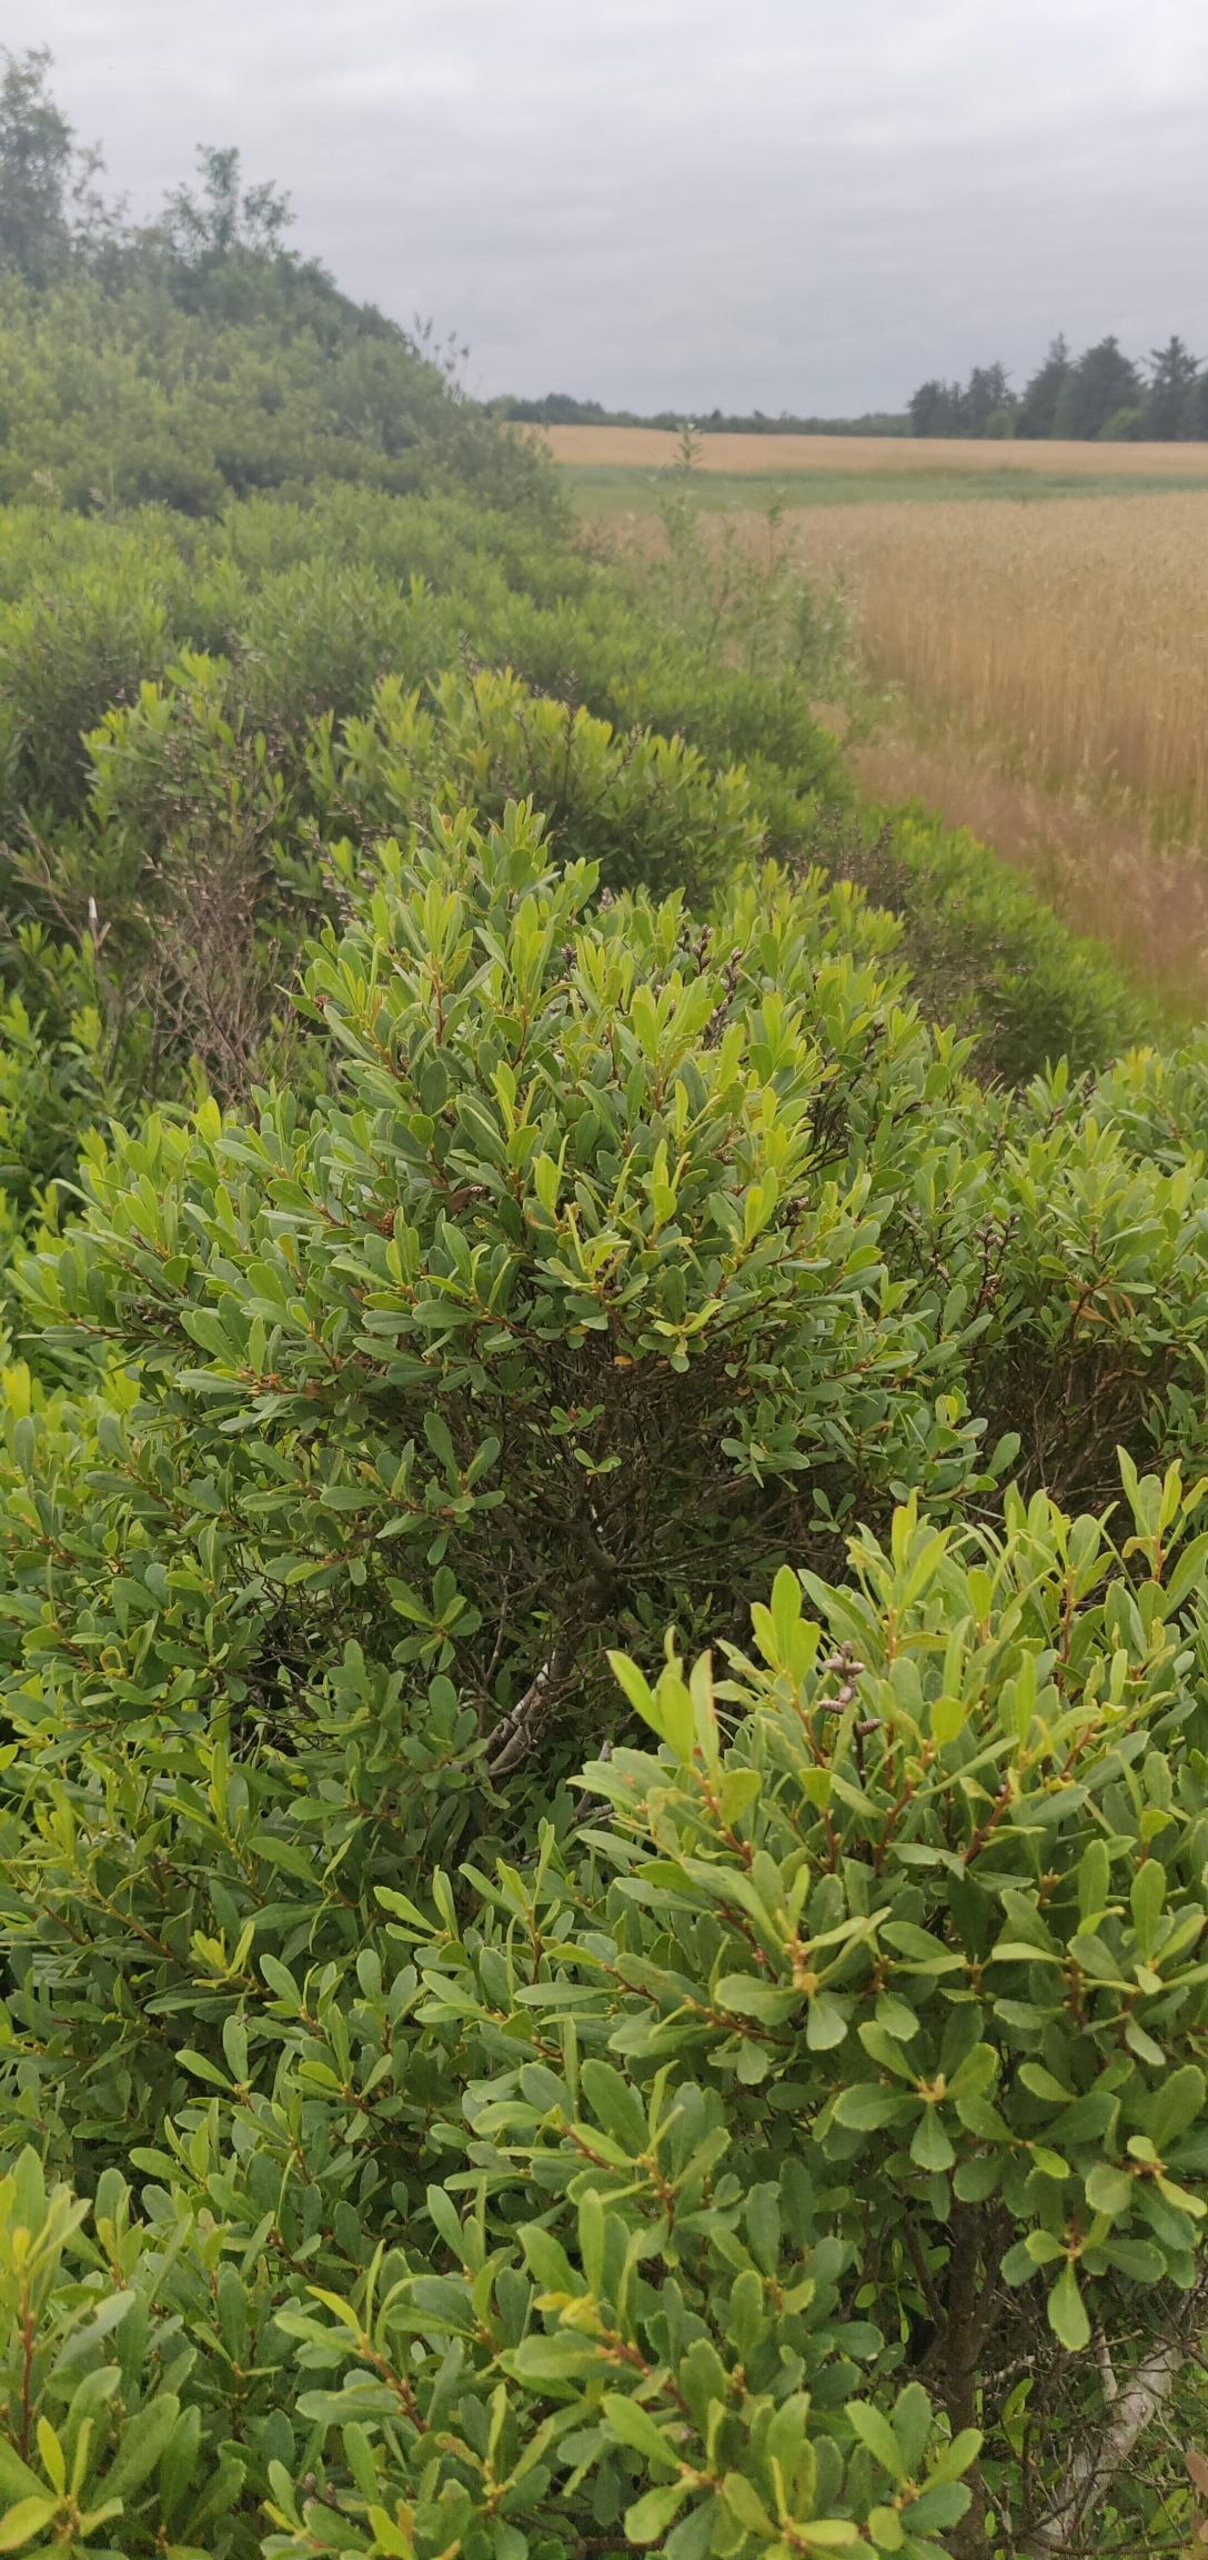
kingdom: Plantae
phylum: Tracheophyta
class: Magnoliopsida
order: Fagales
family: Myricaceae
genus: Myrica
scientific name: Myrica gale
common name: Pors
